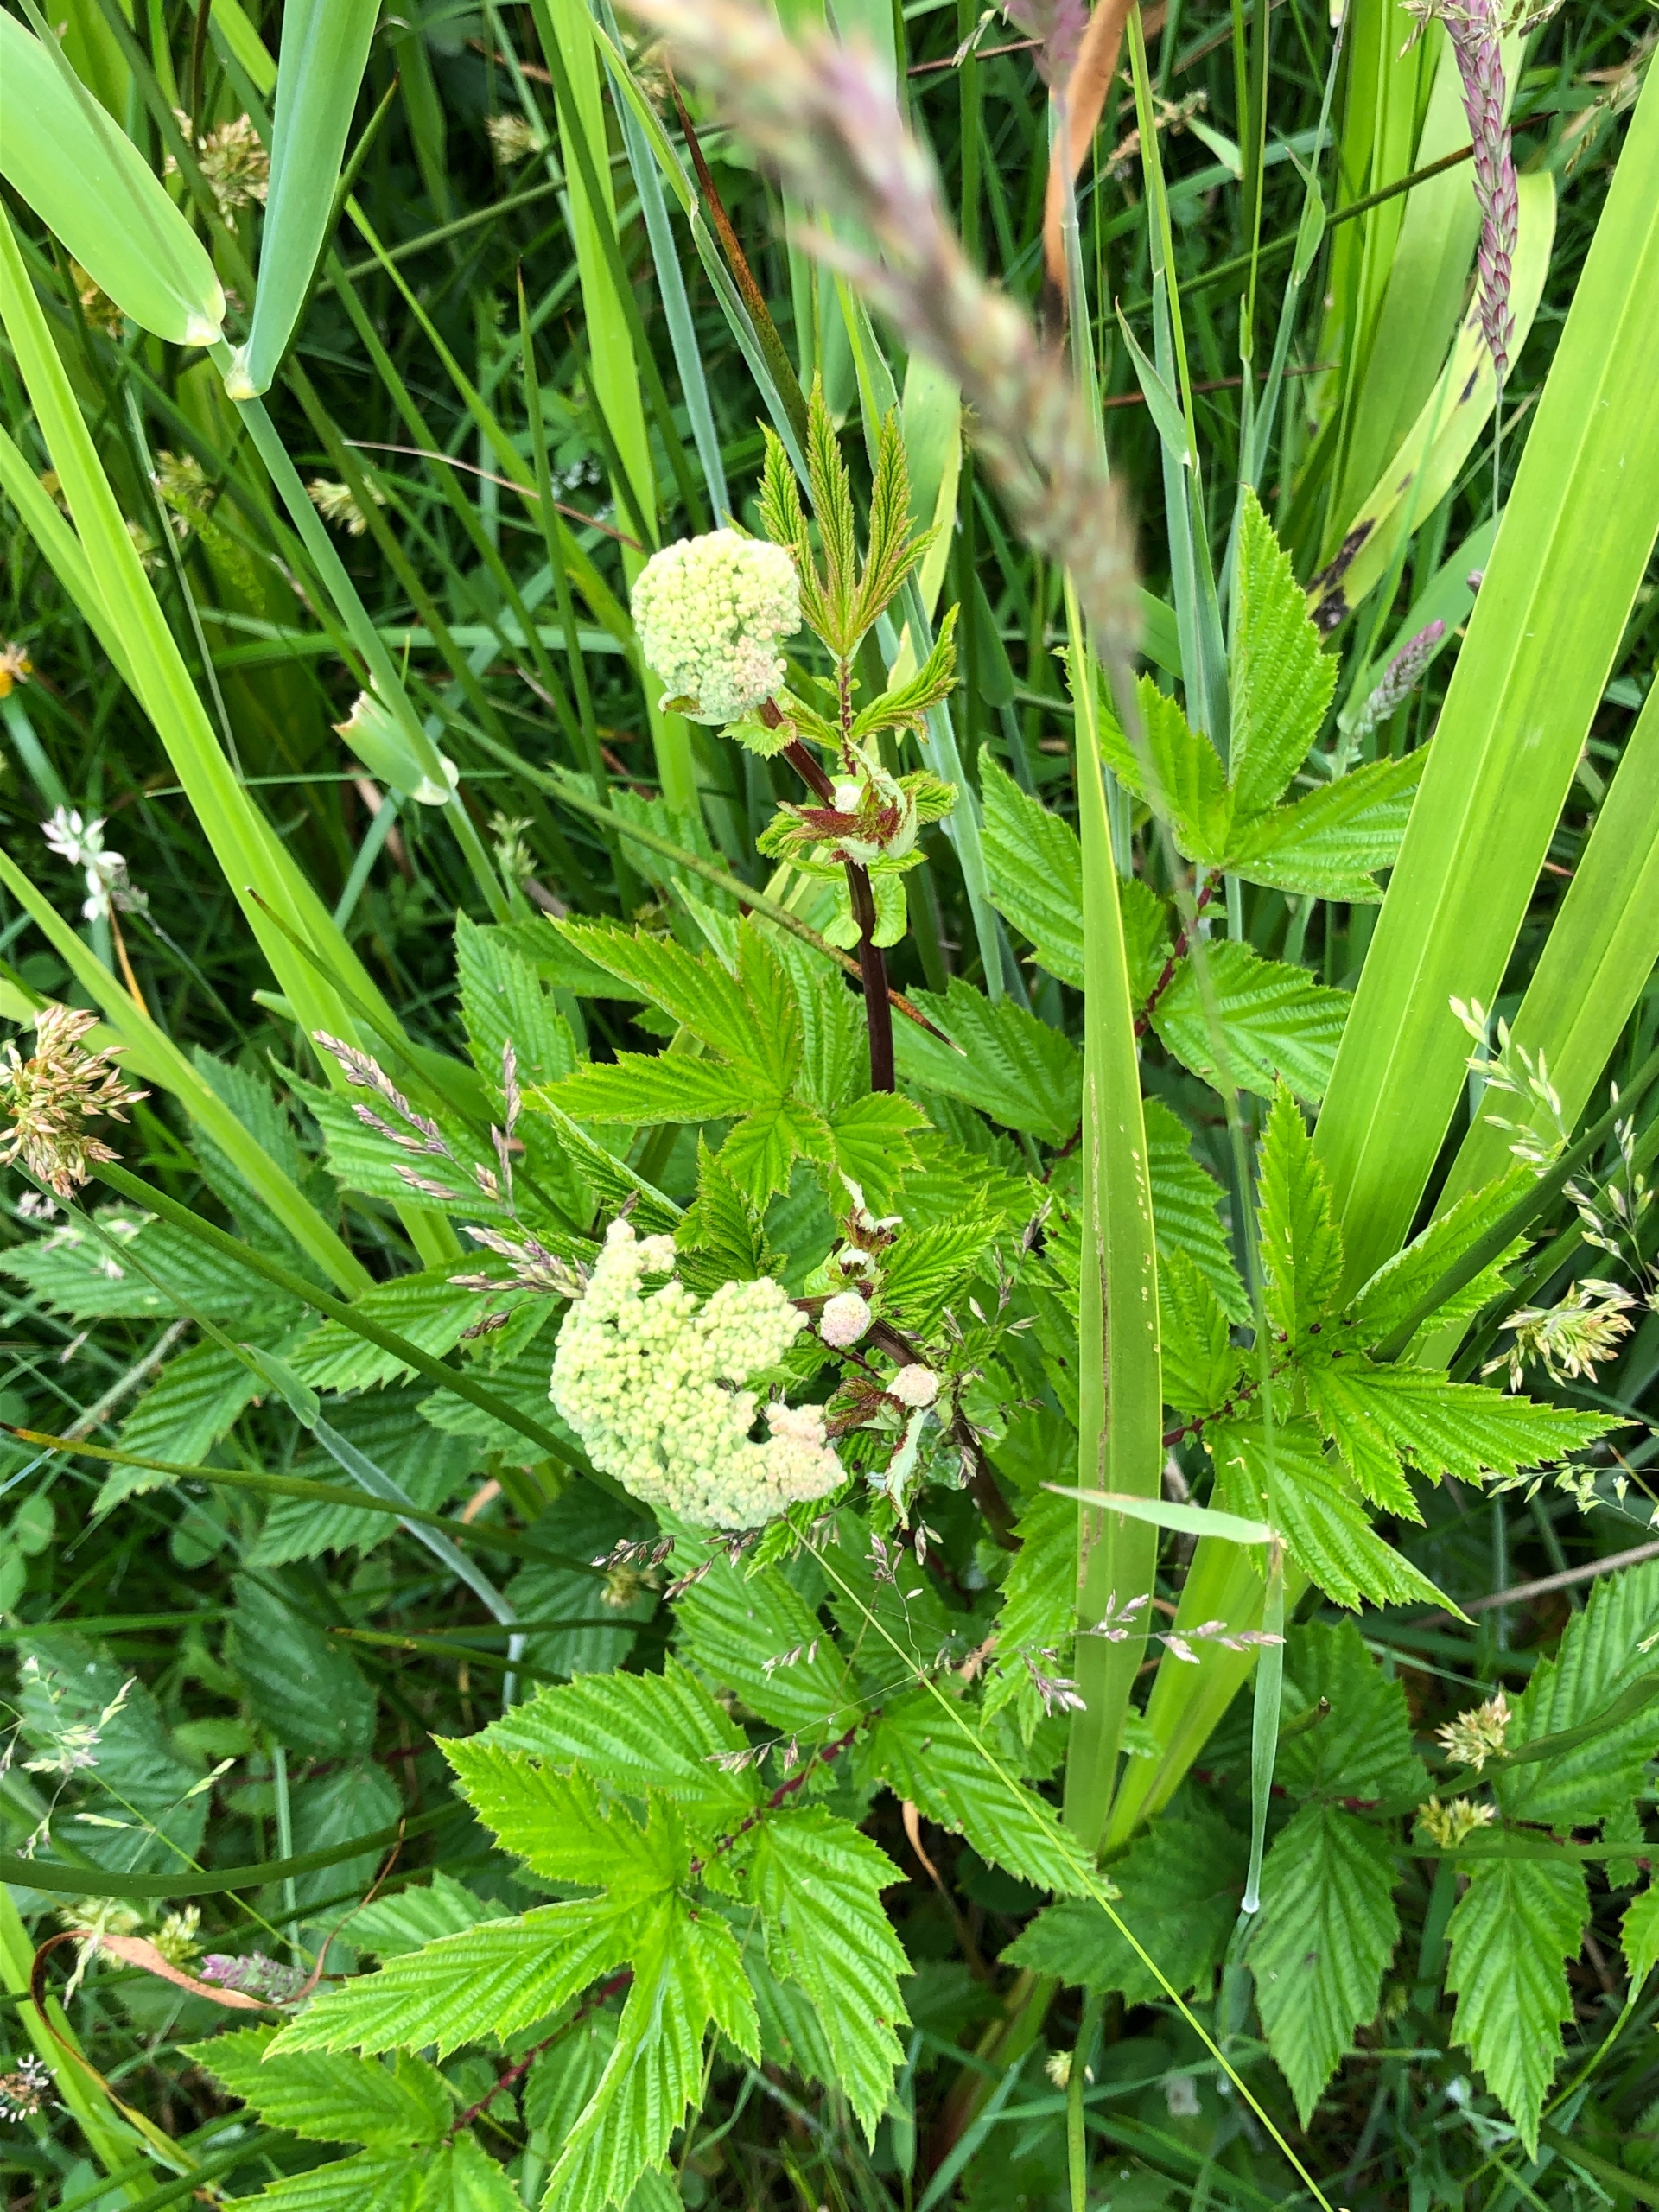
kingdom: Plantae
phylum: Tracheophyta
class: Magnoliopsida
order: Rosales
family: Rosaceae
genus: Filipendula
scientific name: Filipendula ulmaria
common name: Almindelig mjødurt
